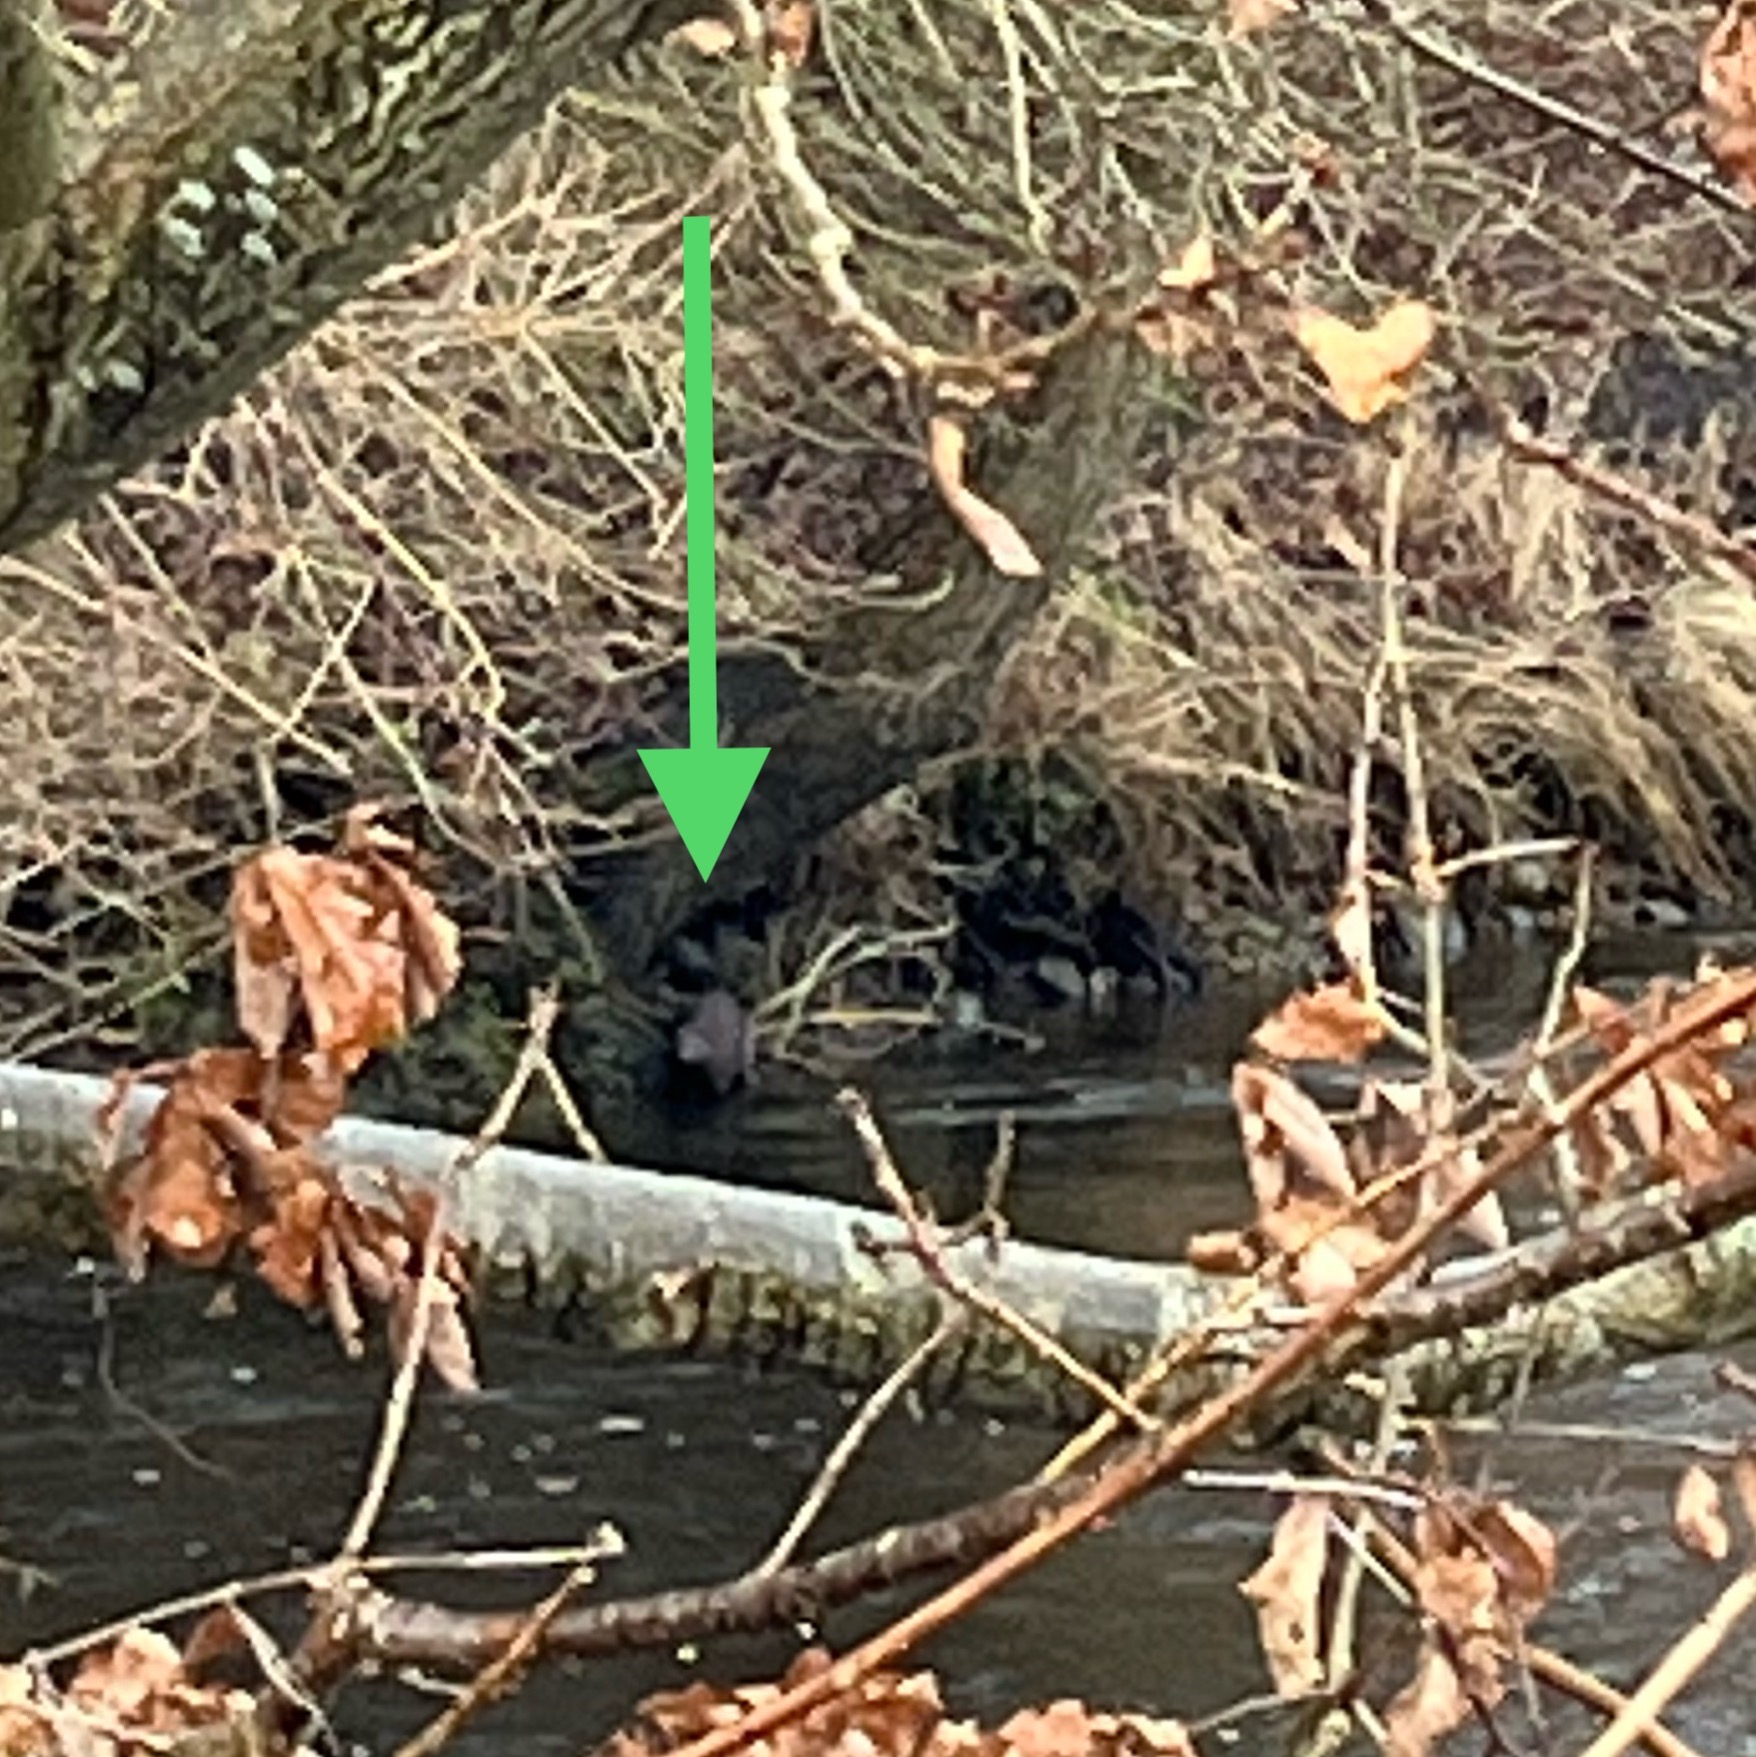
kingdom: Animalia
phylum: Chordata
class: Mammalia
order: Carnivora
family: Mustelidae
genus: Lutra
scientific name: Lutra lutra
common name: Odder
